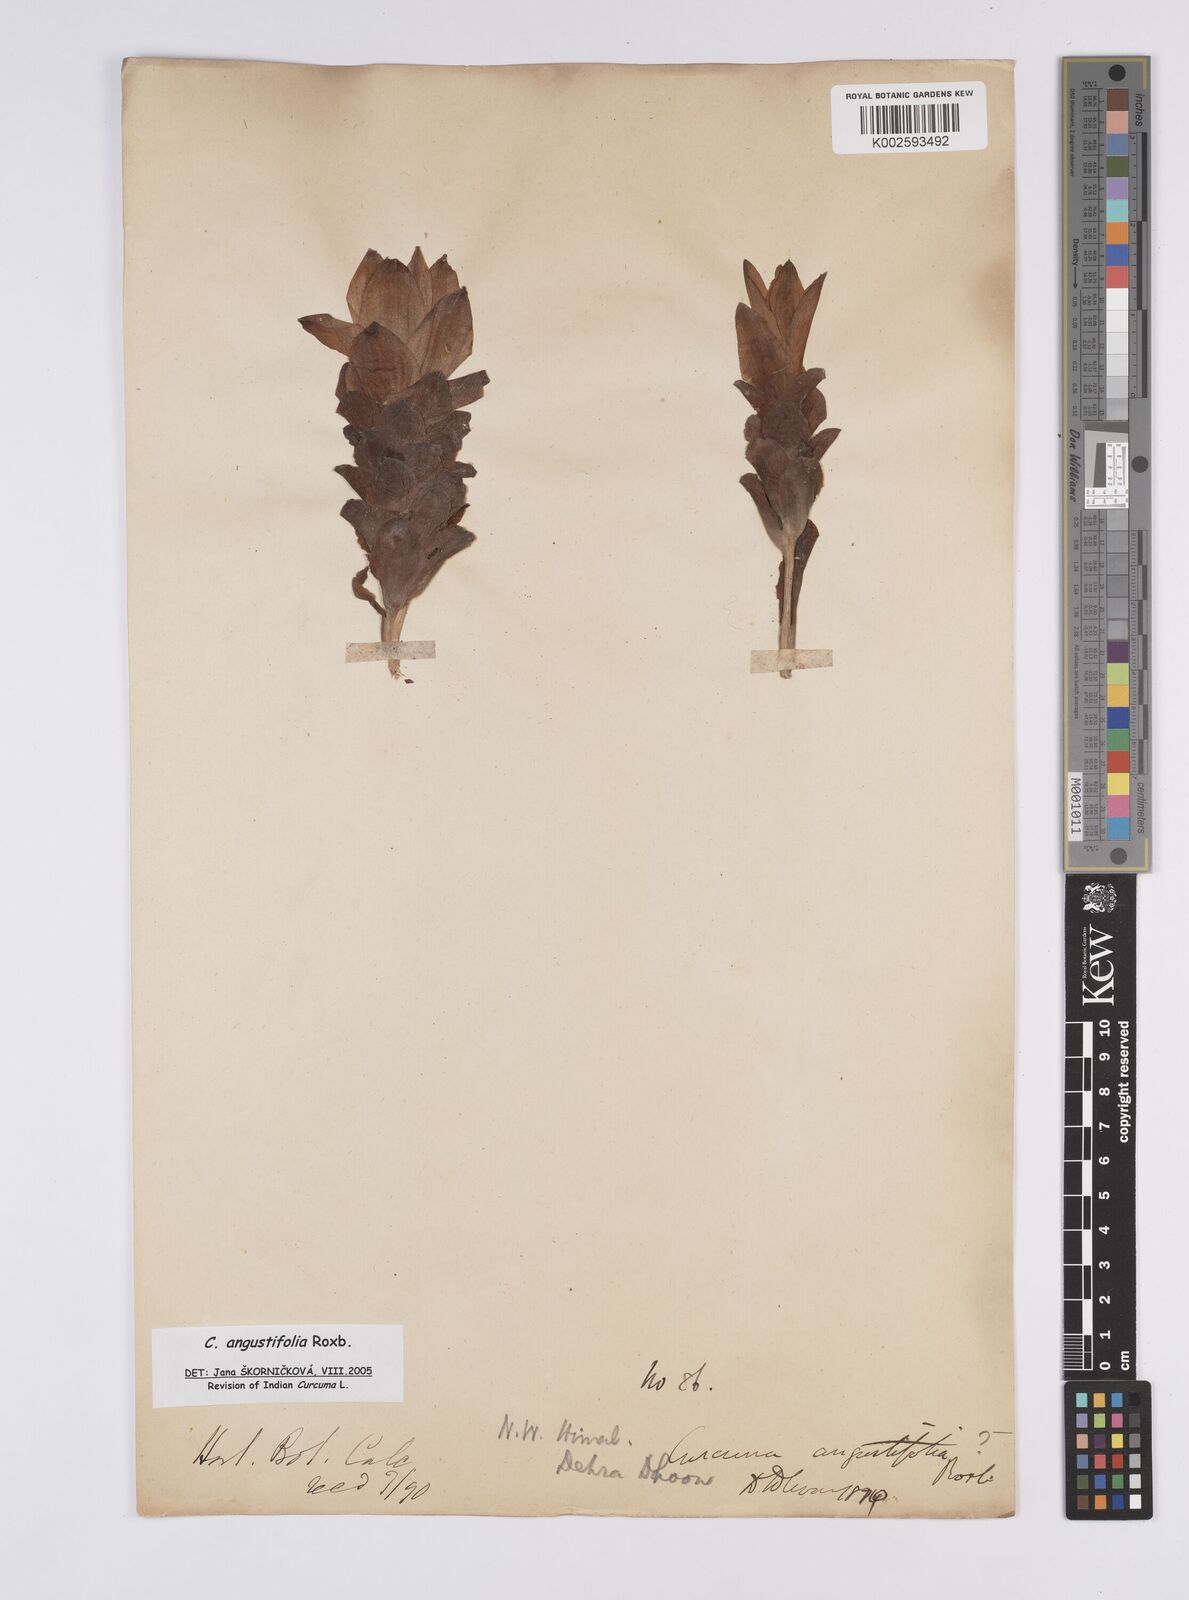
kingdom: Plantae
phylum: Tracheophyta
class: Liliopsida
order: Zingiberales
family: Zingiberaceae
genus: Curcuma
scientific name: Curcuma angustifolia
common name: East indian arrowroot
